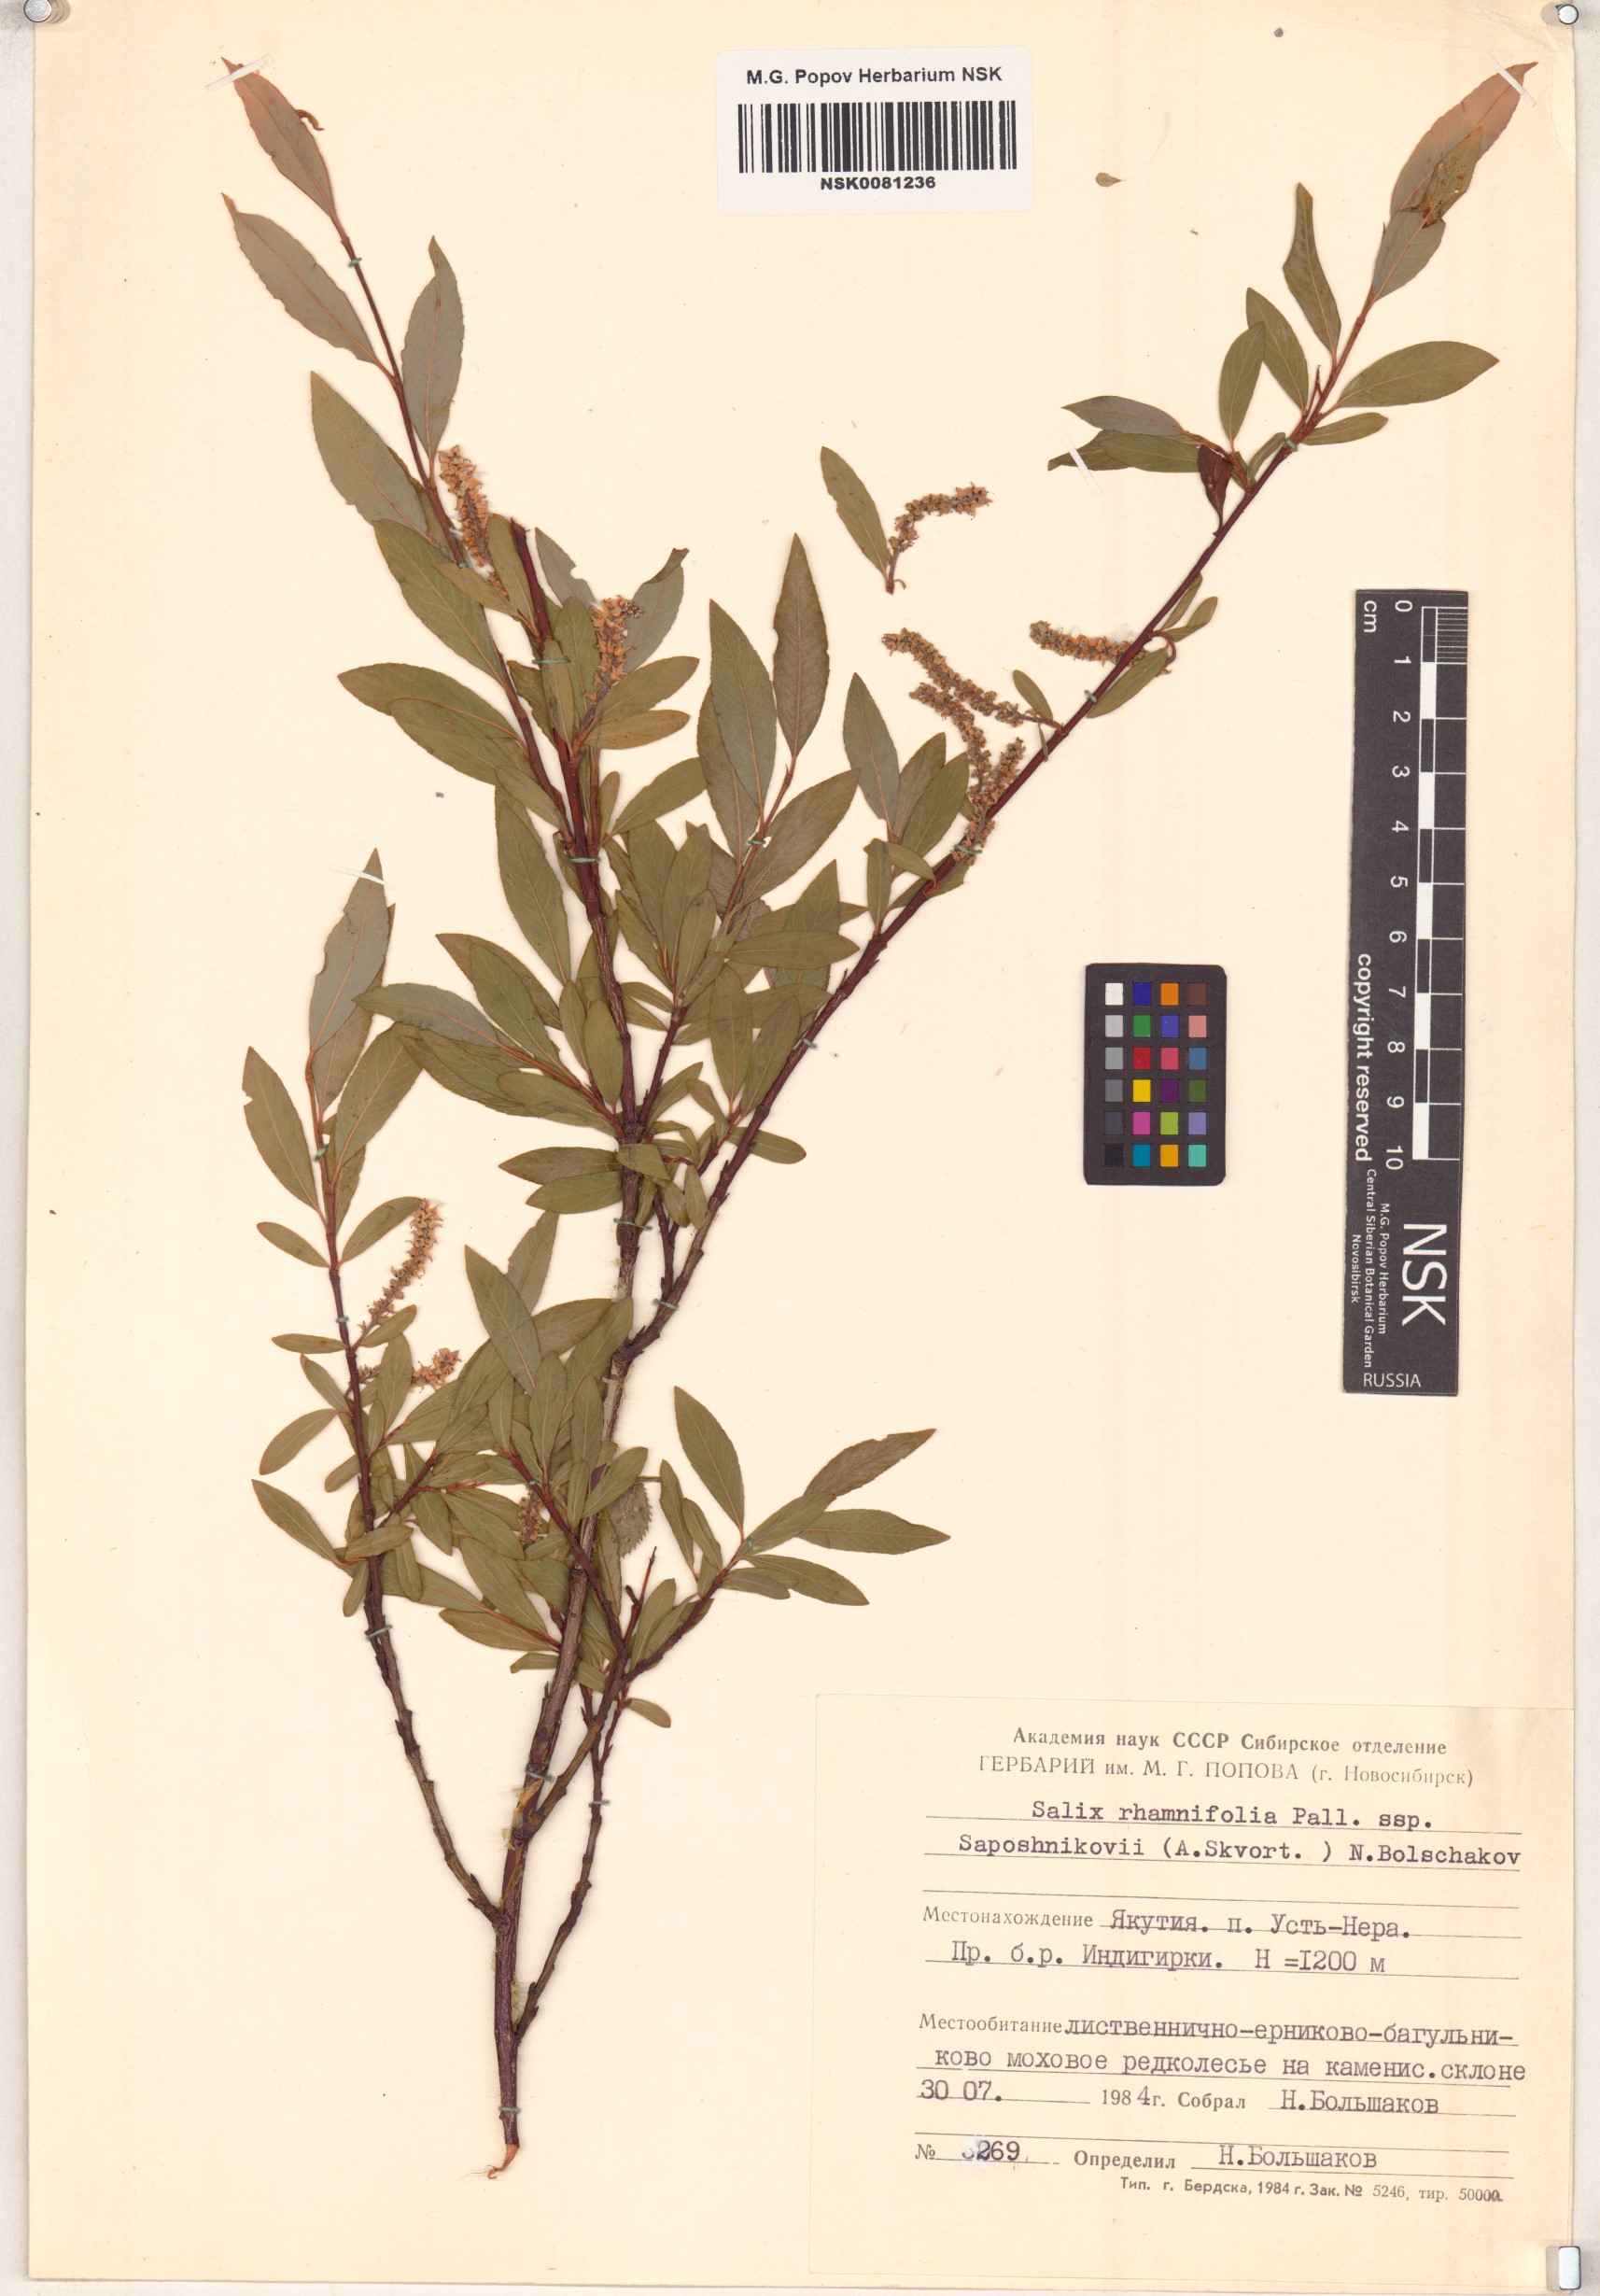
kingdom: Plantae
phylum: Tracheophyta
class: Magnoliopsida
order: Malpighiales
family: Salicaceae
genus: Salix
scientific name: Salix saposhnikovii
